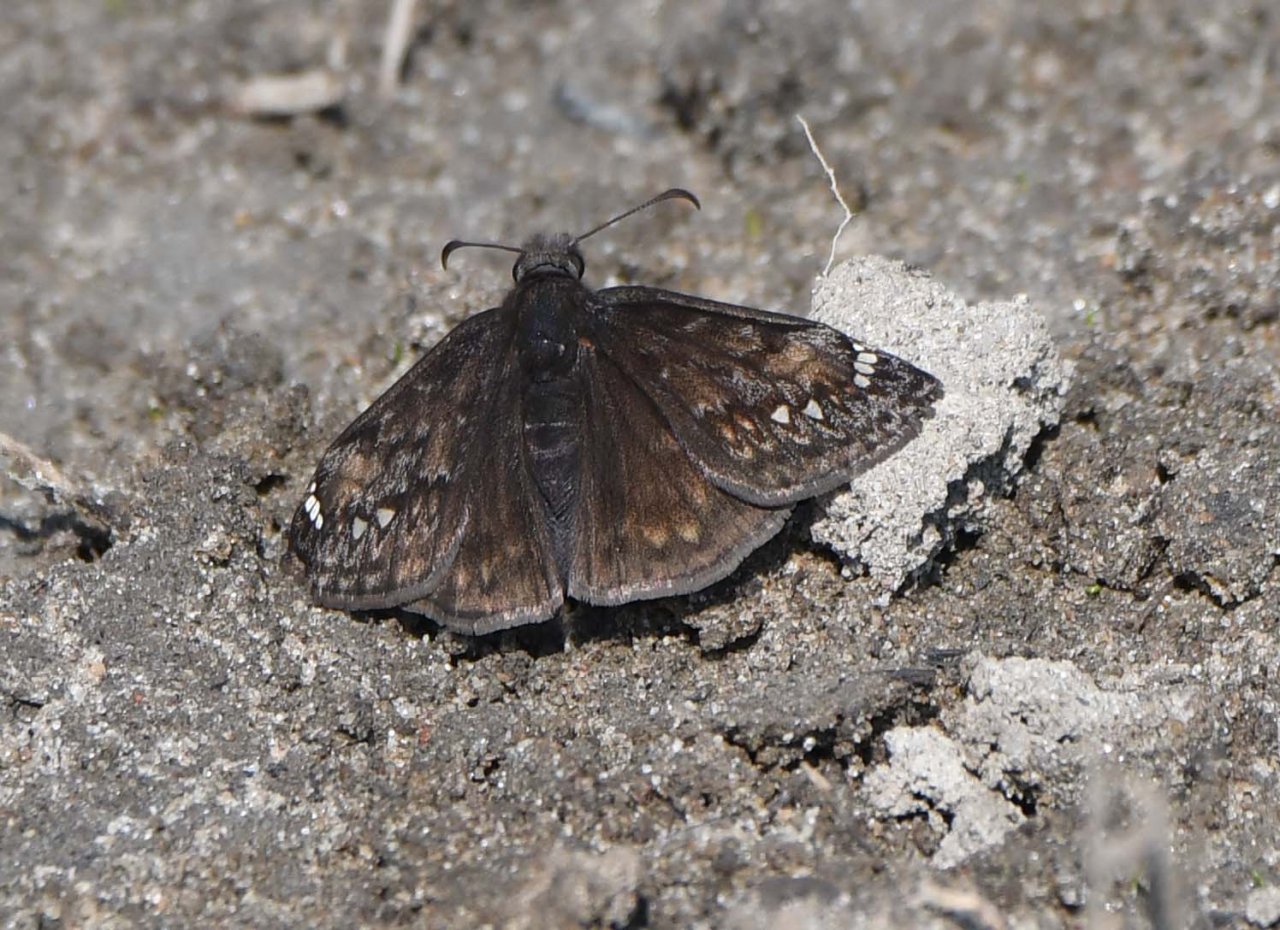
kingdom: Animalia
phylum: Arthropoda
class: Insecta
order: Lepidoptera
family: Hesperiidae
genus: Gesta
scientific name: Gesta
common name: Juvenal's Duskywing
